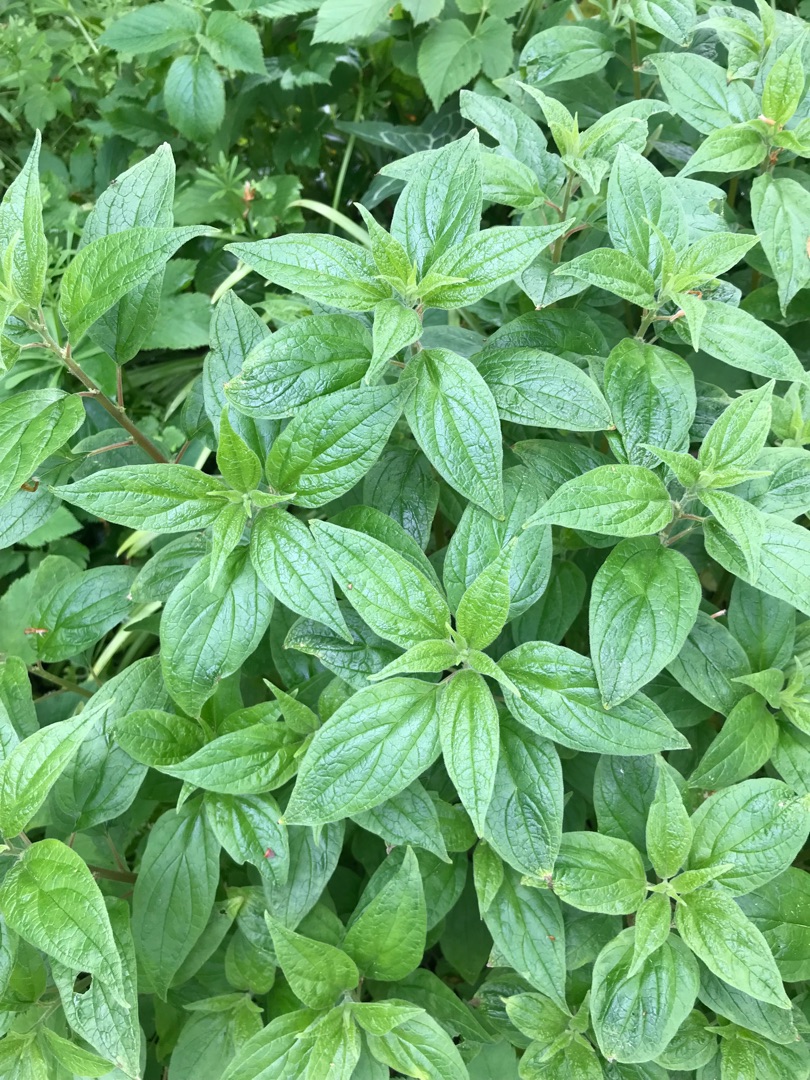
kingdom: Plantae
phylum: Tracheophyta
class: Magnoliopsida
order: Rosales
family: Urticaceae
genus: Parietaria
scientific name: Parietaria officinalis
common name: Almindelig springknap
